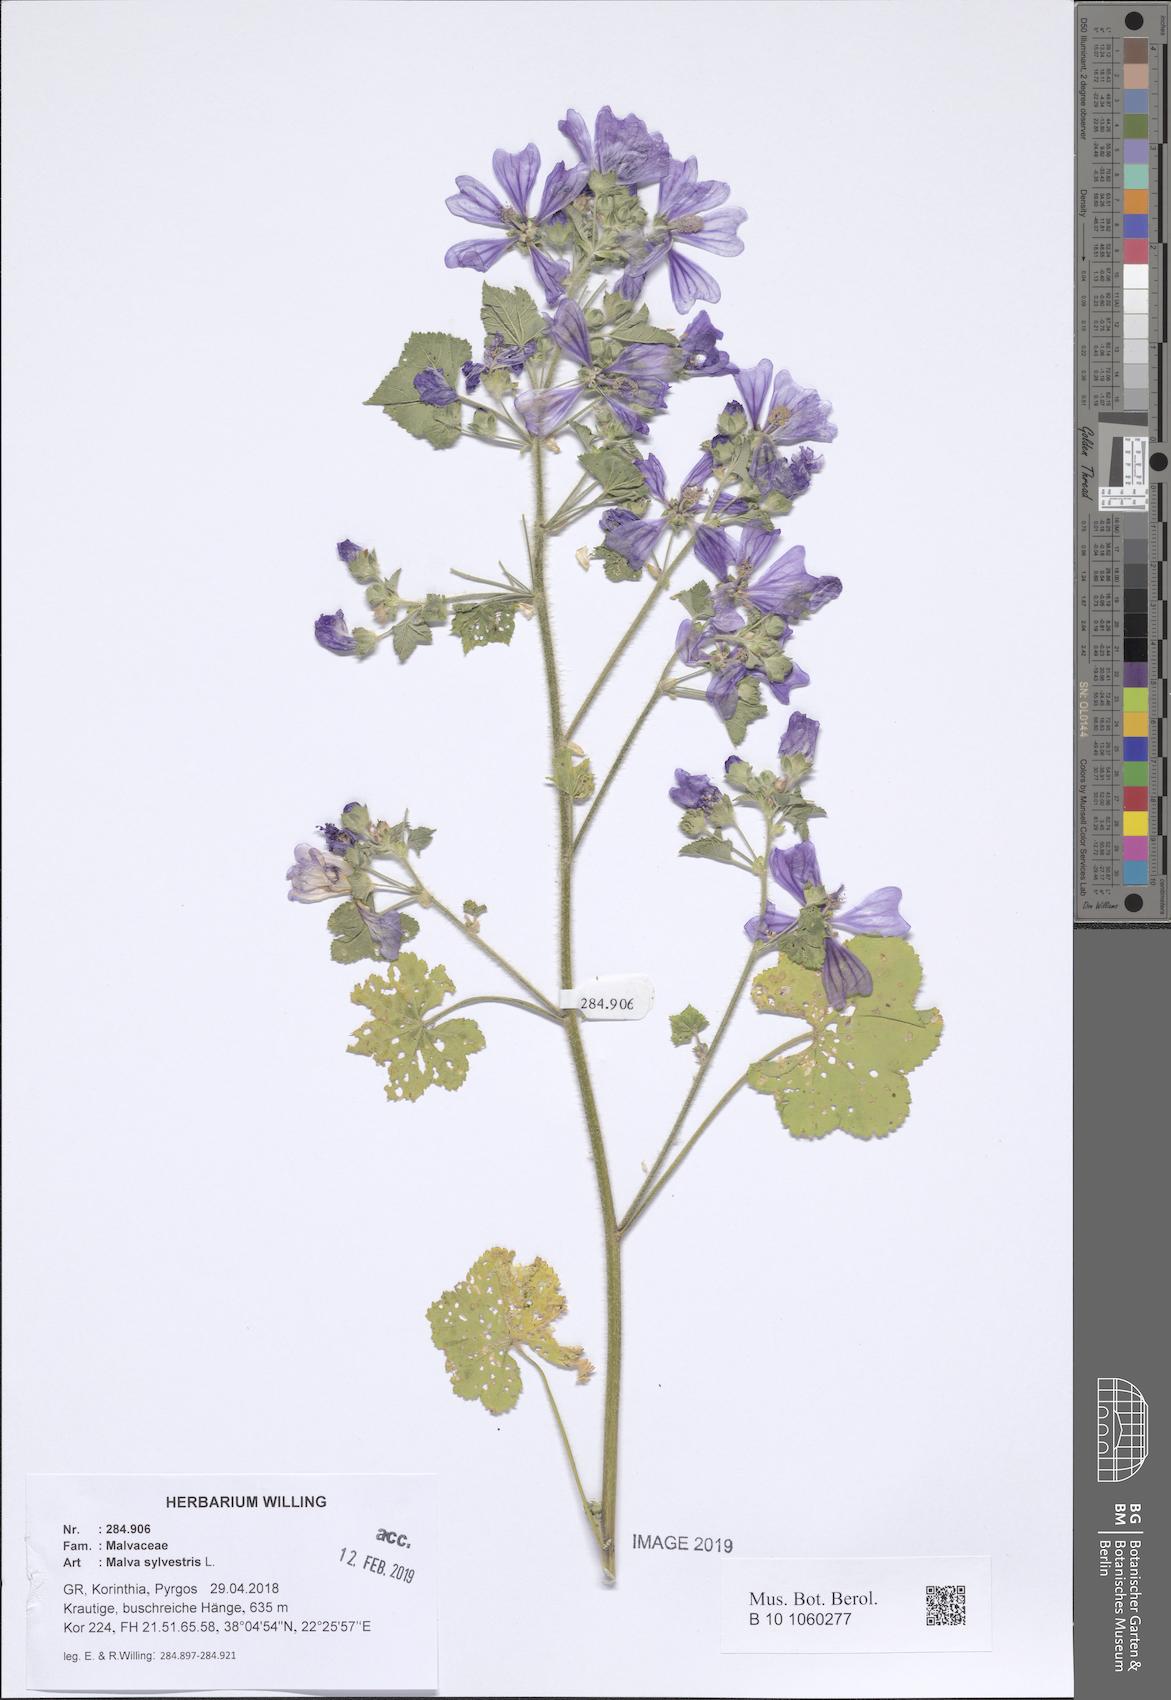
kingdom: Plantae
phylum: Tracheophyta
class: Magnoliopsida
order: Malvales
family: Malvaceae
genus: Malva
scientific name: Malva sylvestris
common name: Common mallow
